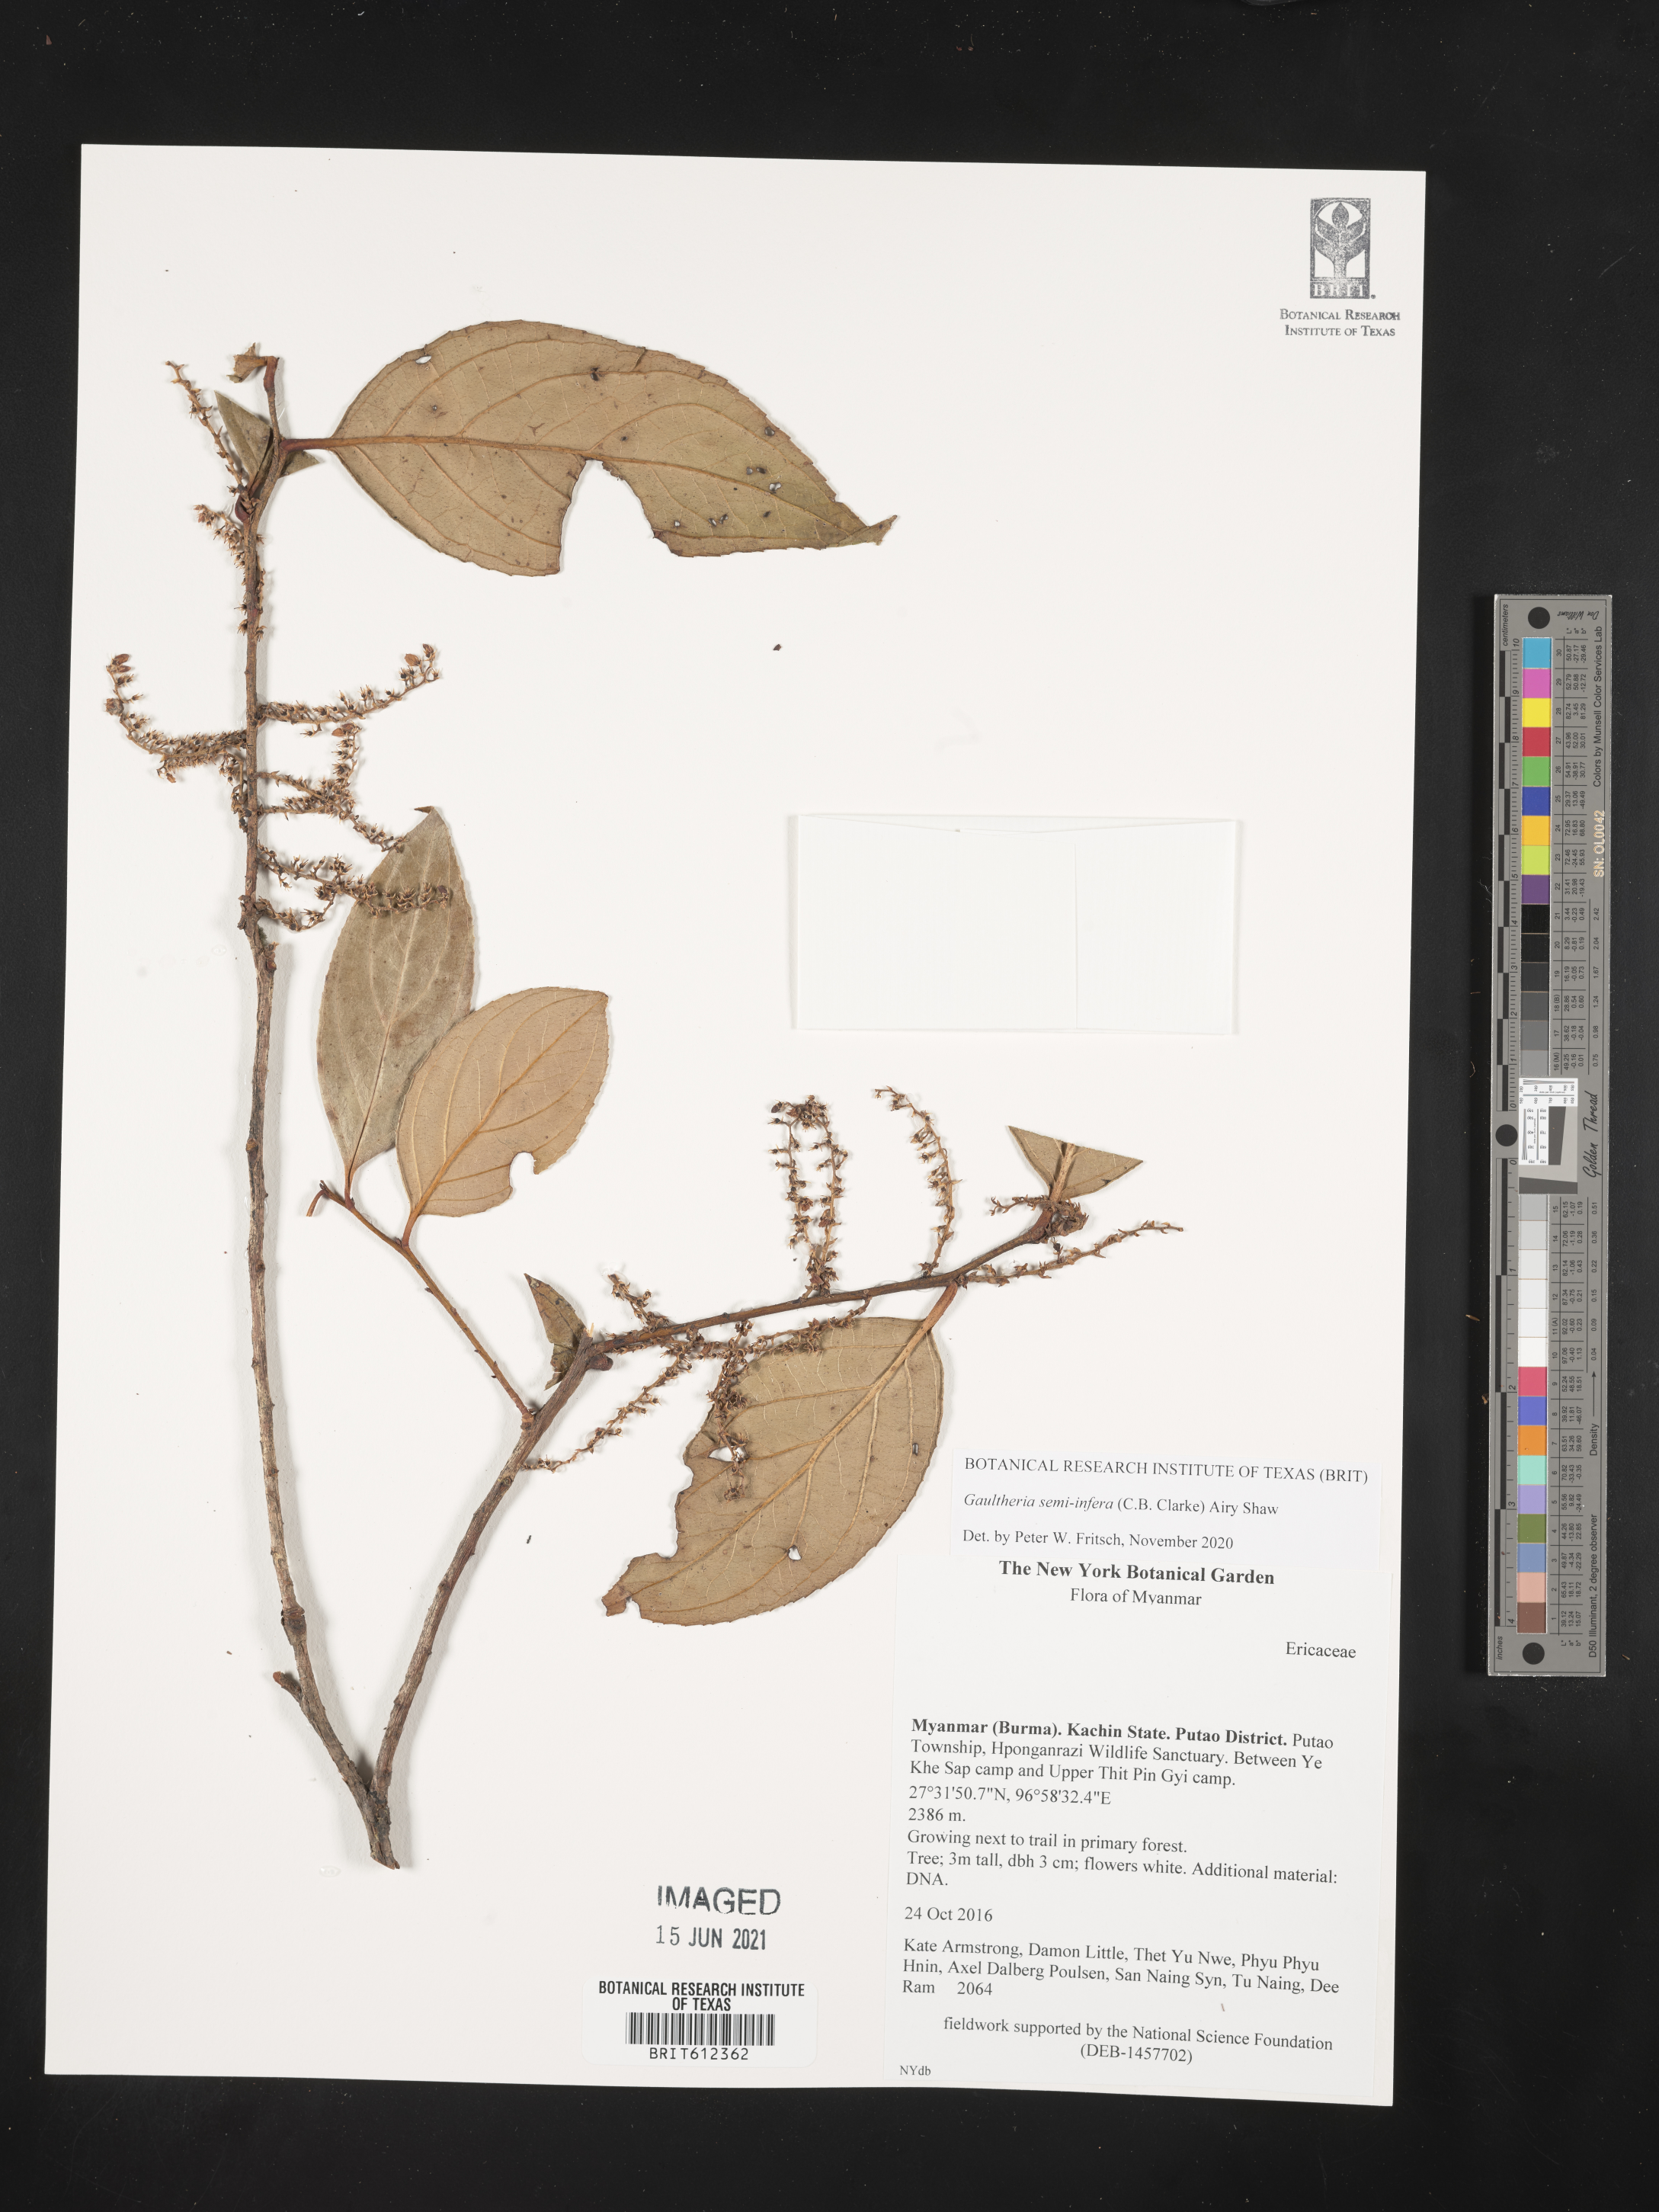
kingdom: Plantae
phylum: Tracheophyta
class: Magnoliopsida
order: Ericales
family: Ericaceae
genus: Gaultheria
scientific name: Gaultheria semiinfera
